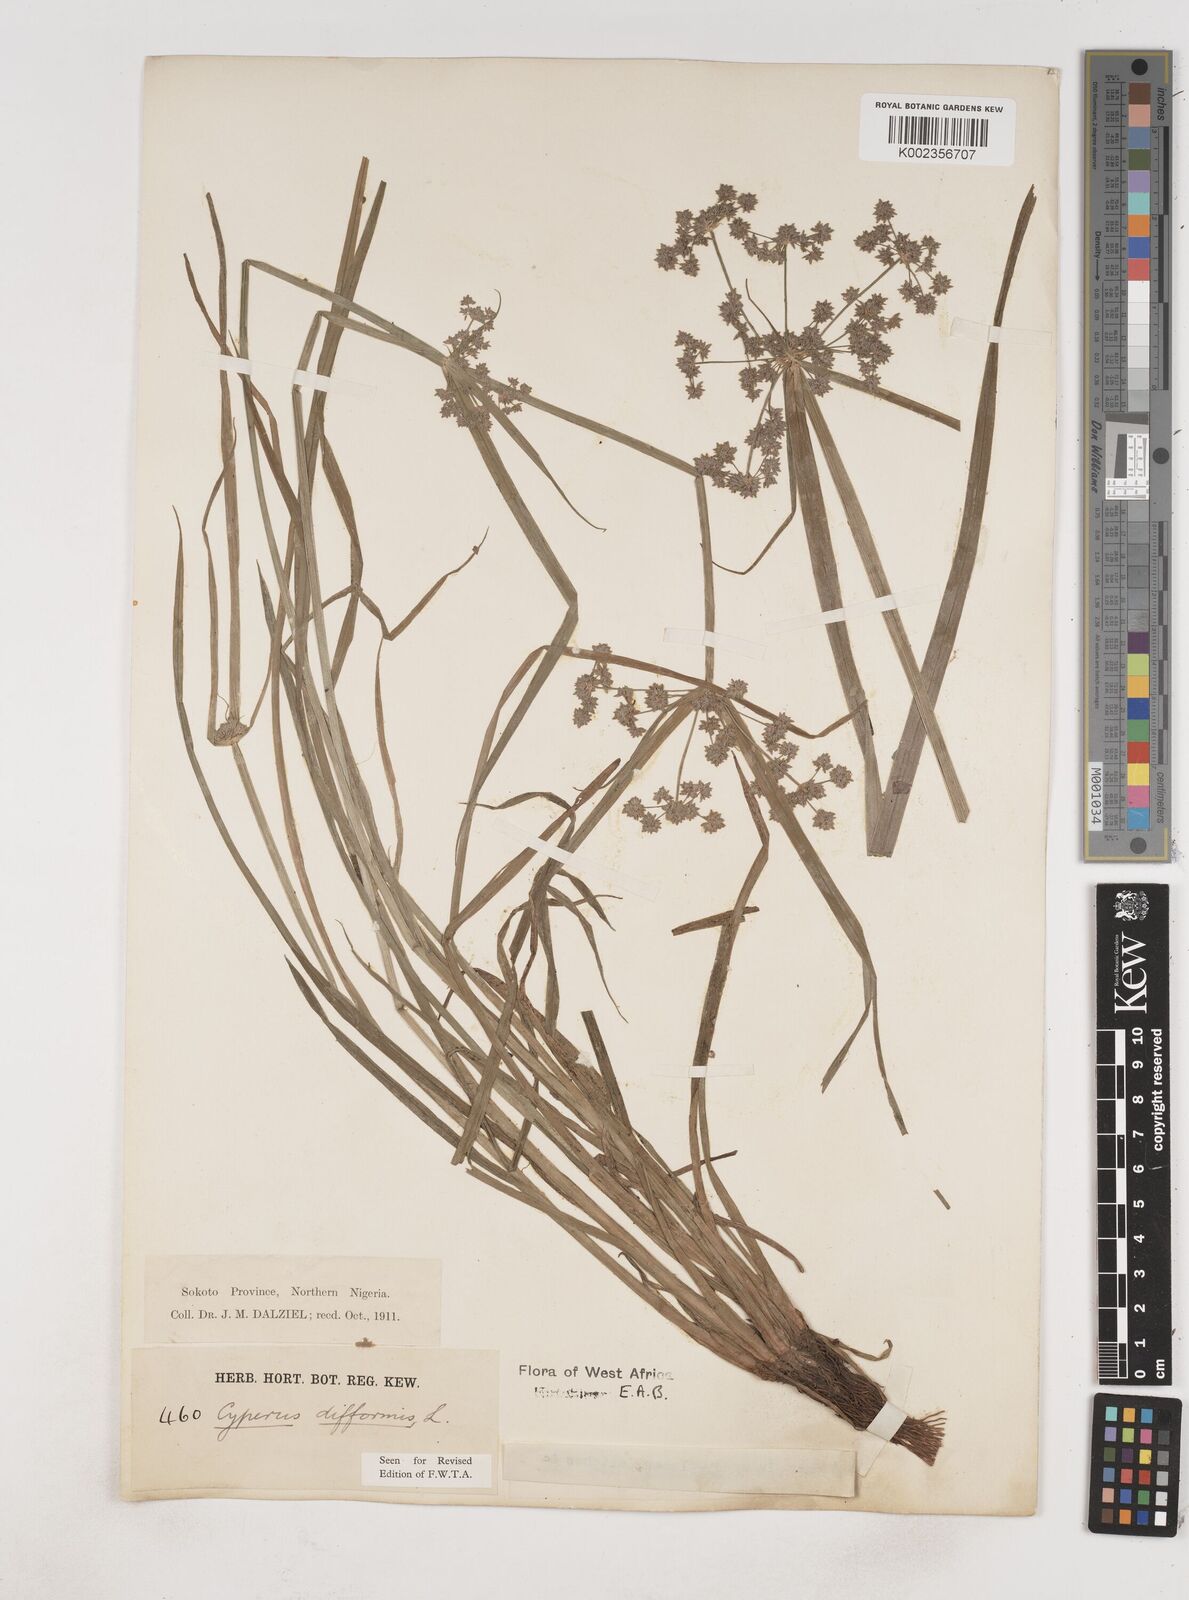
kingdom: Plantae
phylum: Tracheophyta
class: Liliopsida
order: Poales
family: Cyperaceae
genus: Cyperus
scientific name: Cyperus difformis
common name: Variable flatsedge
